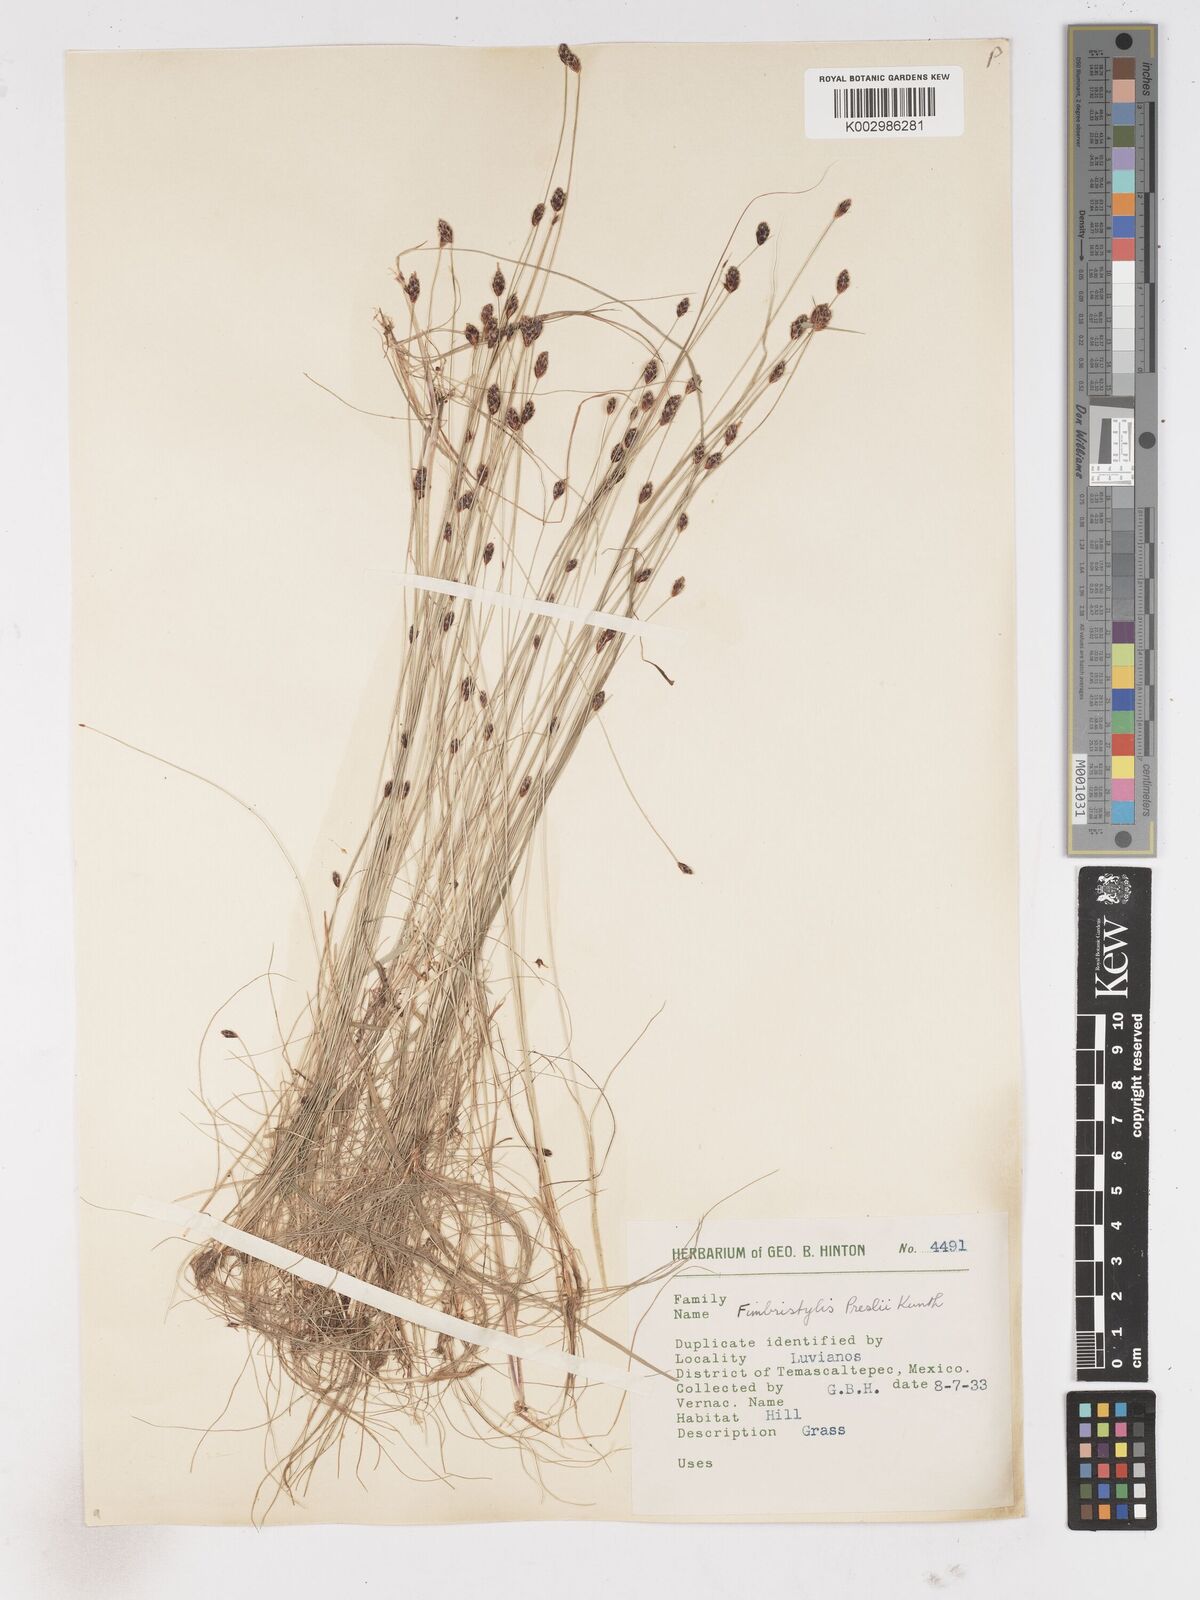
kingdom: Plantae
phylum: Tracheophyta
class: Liliopsida
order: Poales
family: Cyperaceae
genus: Bulbostylis
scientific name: Bulbostylis pubescens
